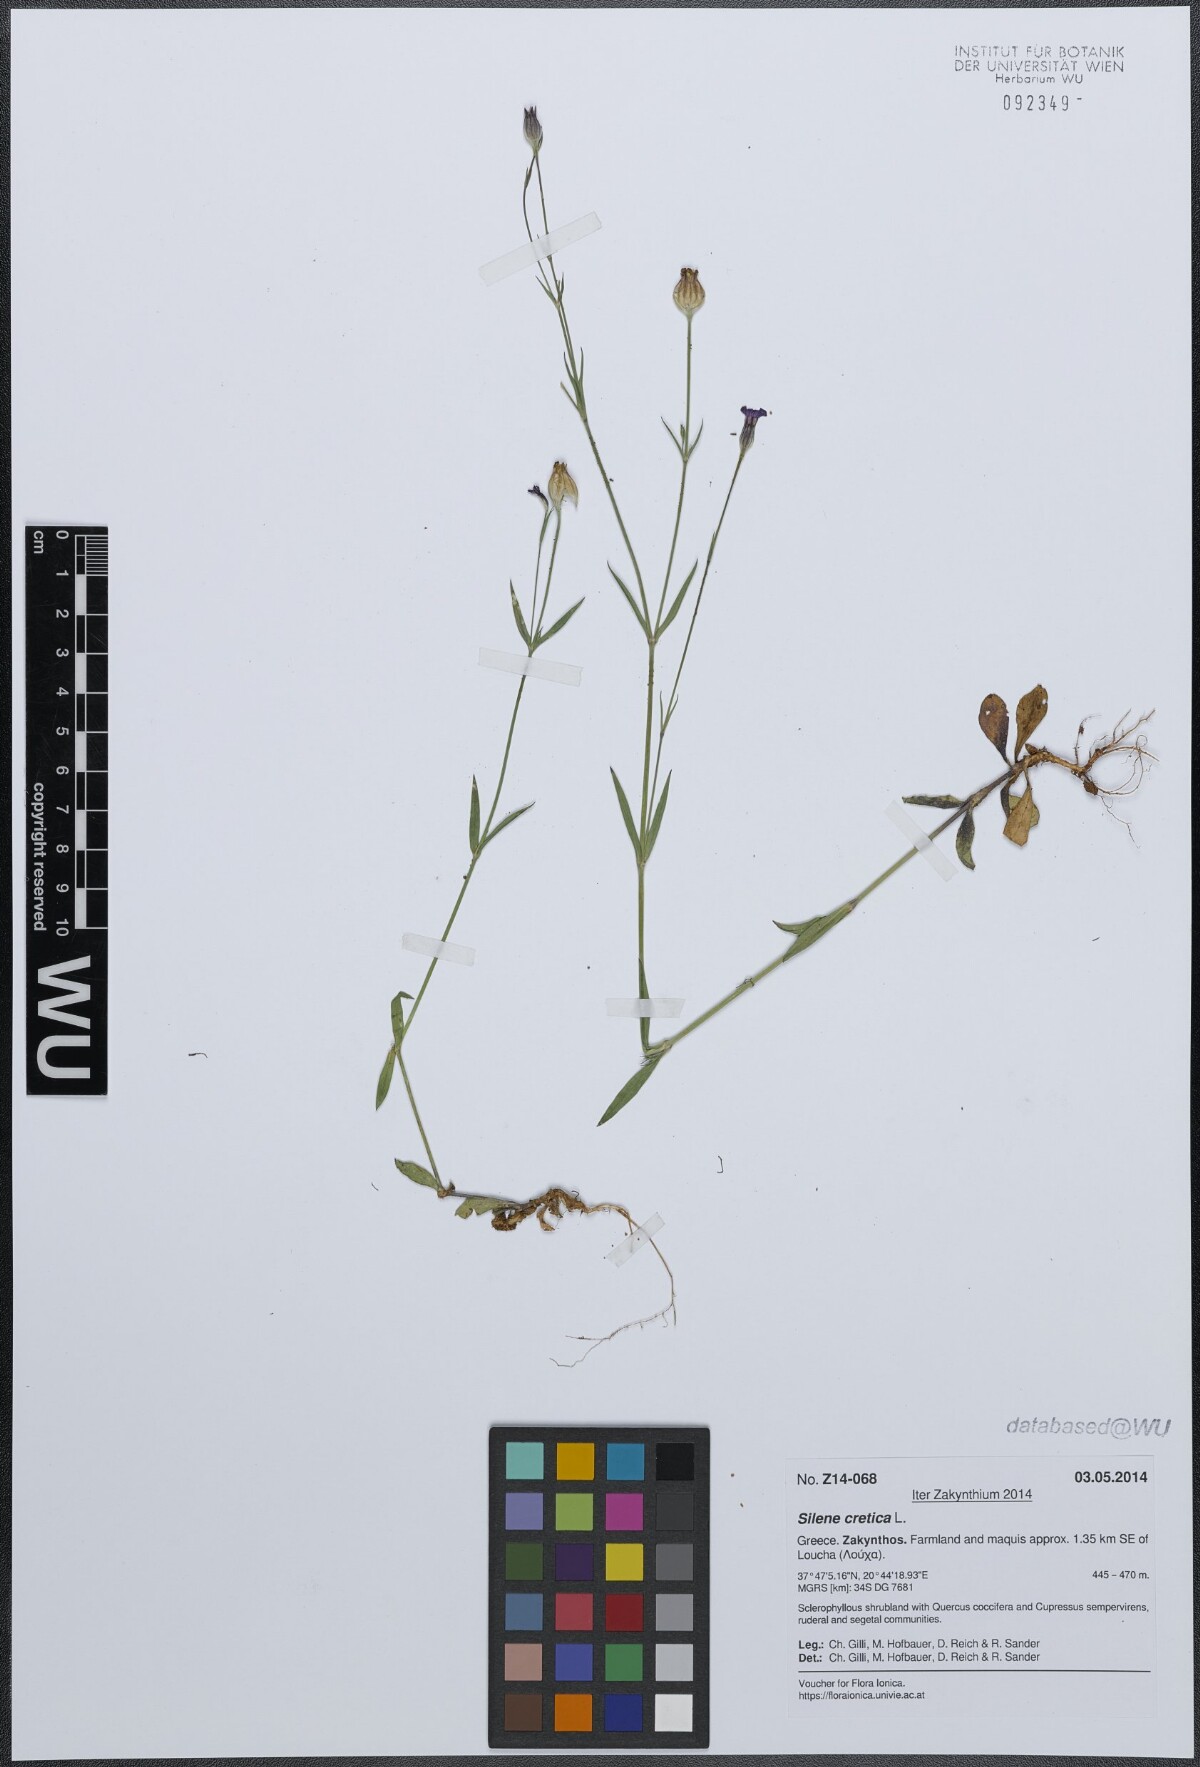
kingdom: Plantae
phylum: Tracheophyta
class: Magnoliopsida
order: Caryophyllales
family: Caryophyllaceae
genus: Silene
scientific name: Silene cretica
